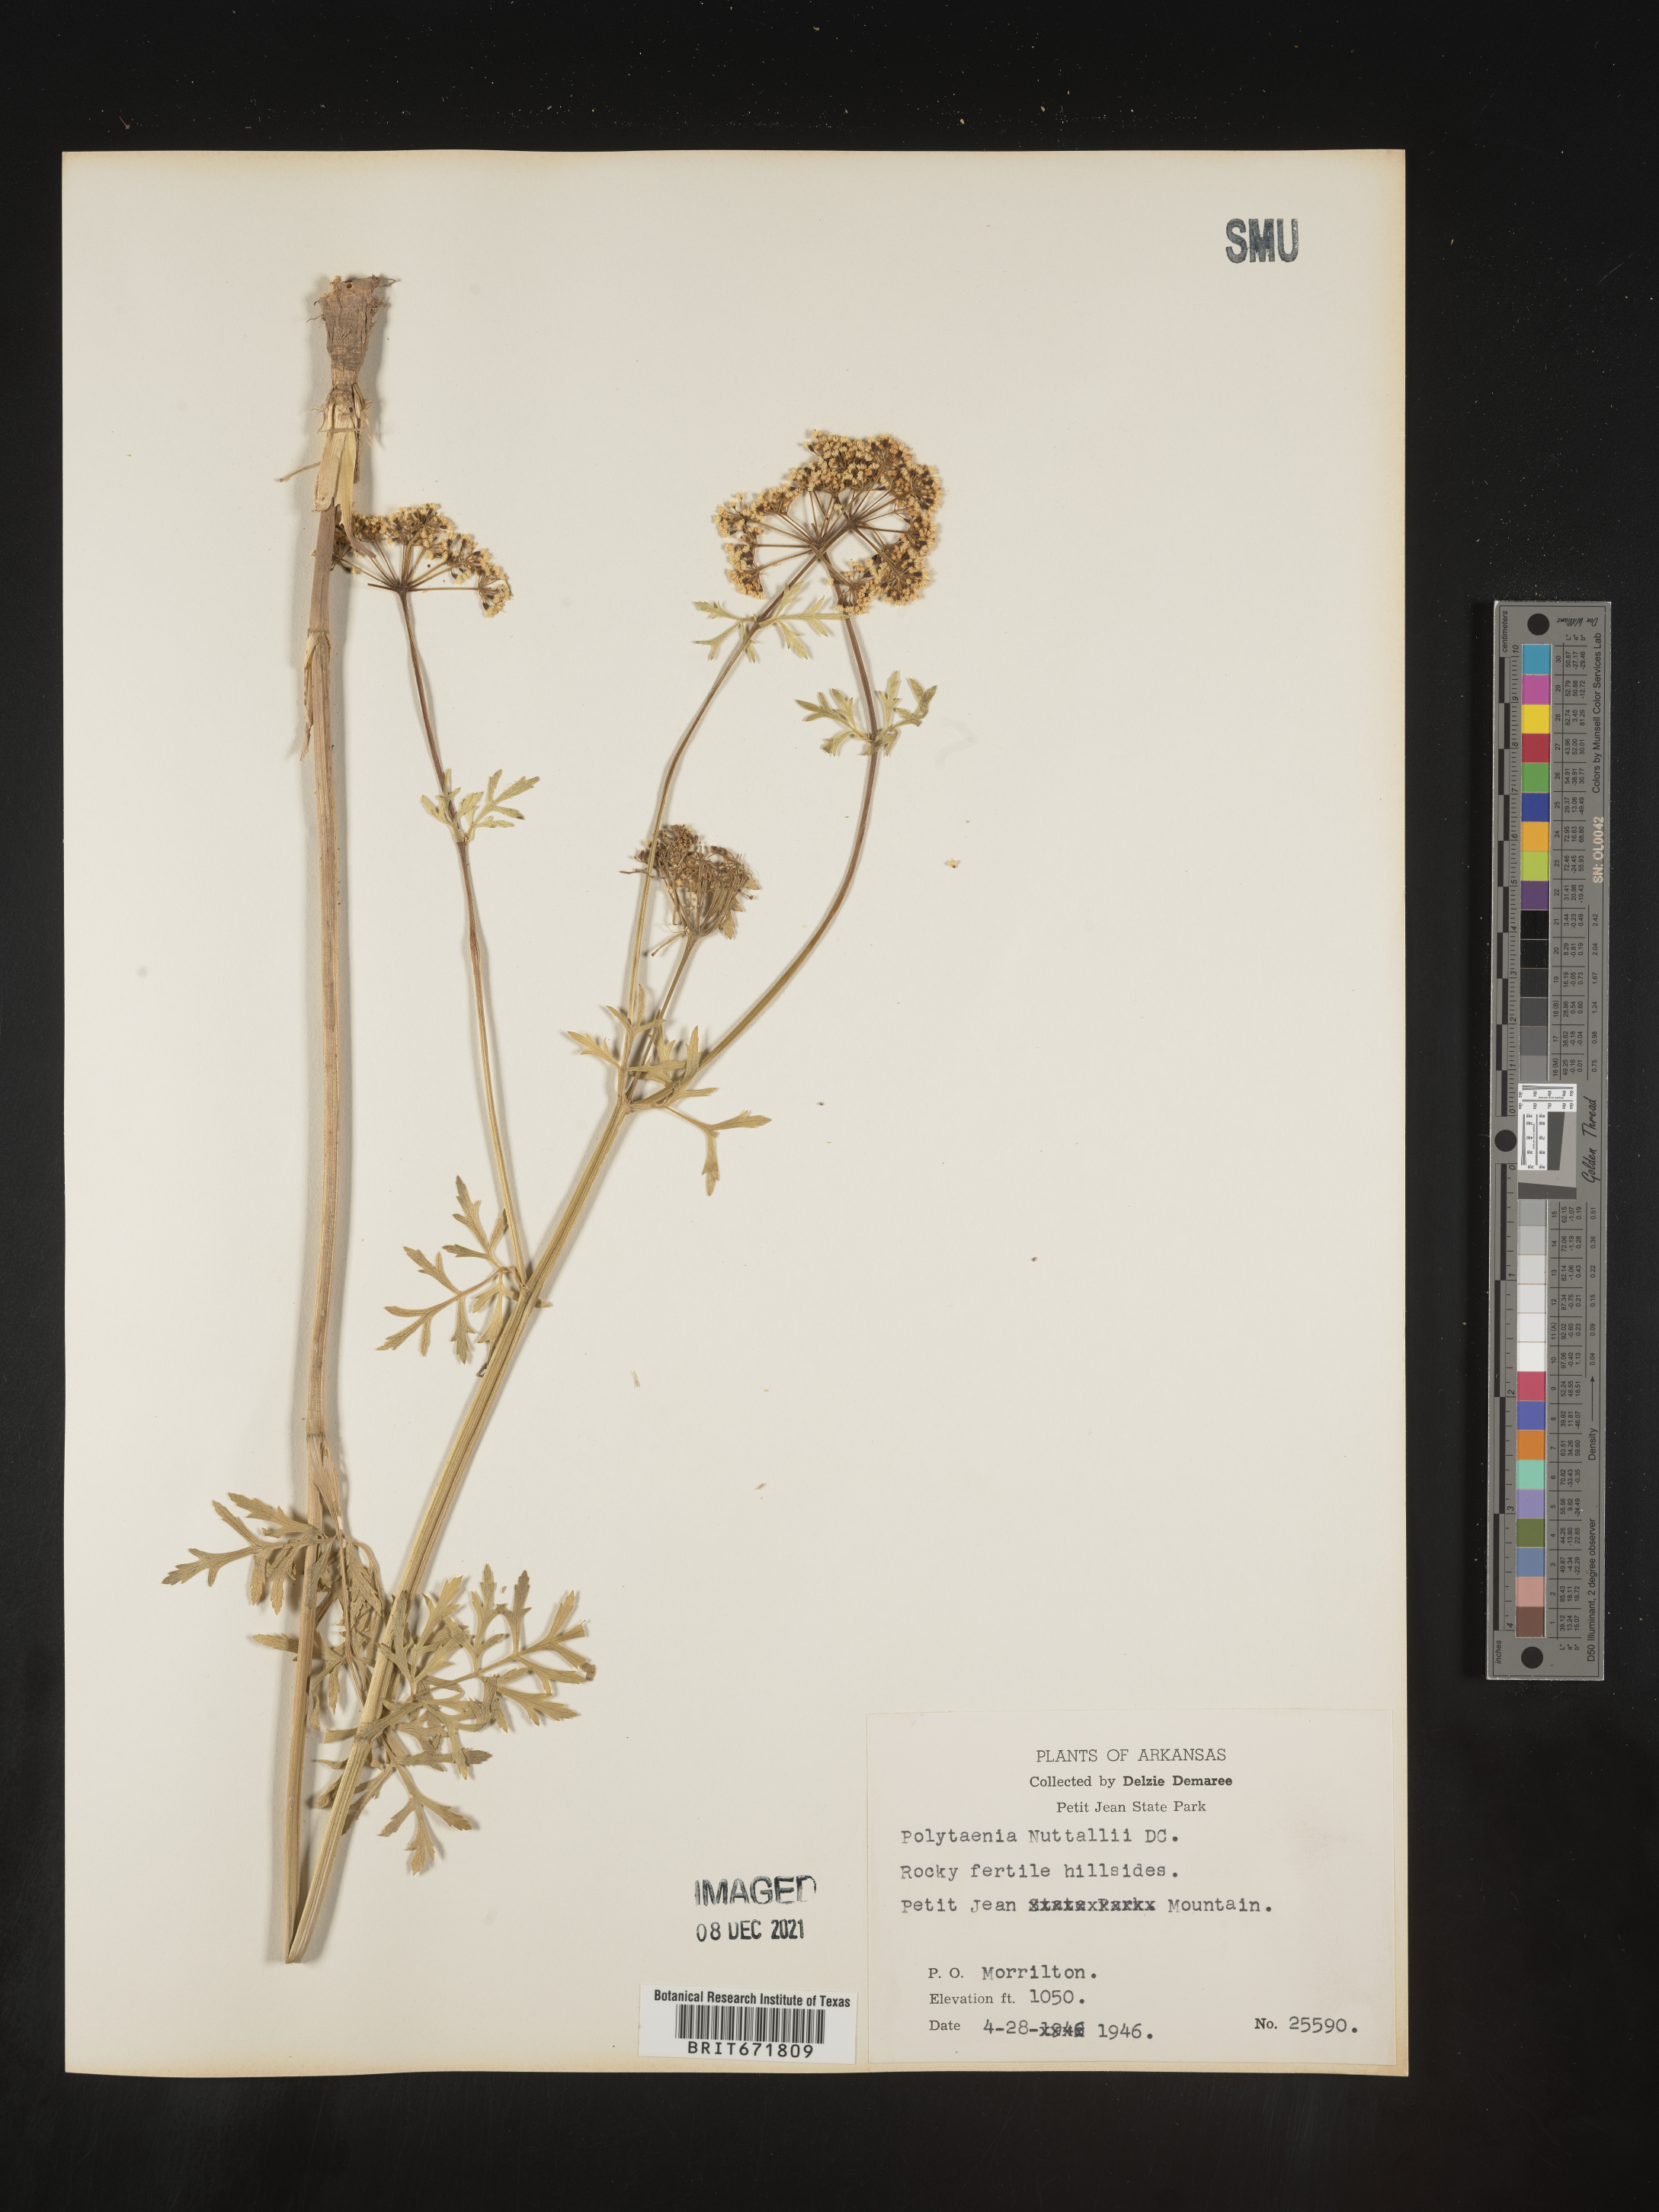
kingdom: Plantae
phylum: Tracheophyta
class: Magnoliopsida
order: Apiales
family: Apiaceae
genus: Polytaenia
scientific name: Polytaenia nuttallii
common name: Prairie-parsley
